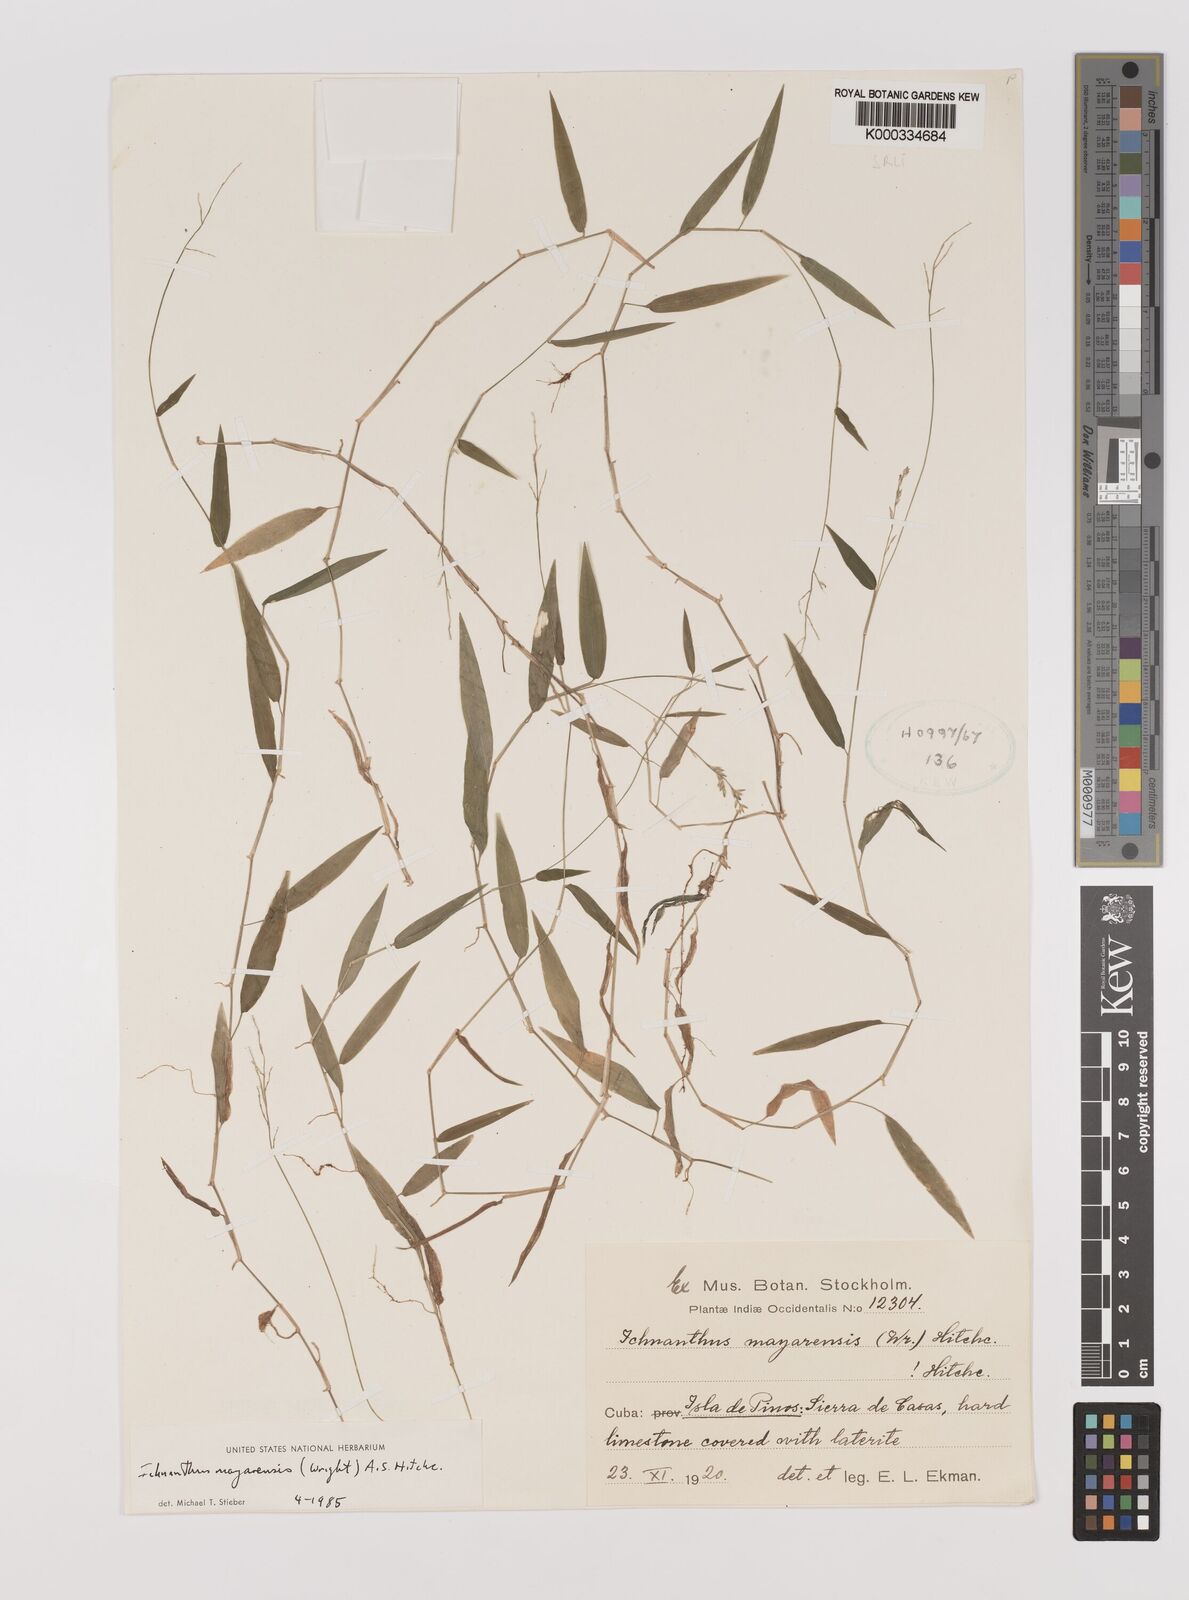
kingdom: Plantae
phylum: Tracheophyta
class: Liliopsida
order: Poales
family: Poaceae
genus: Oedochloa
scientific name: Oedochloa mayarensis
